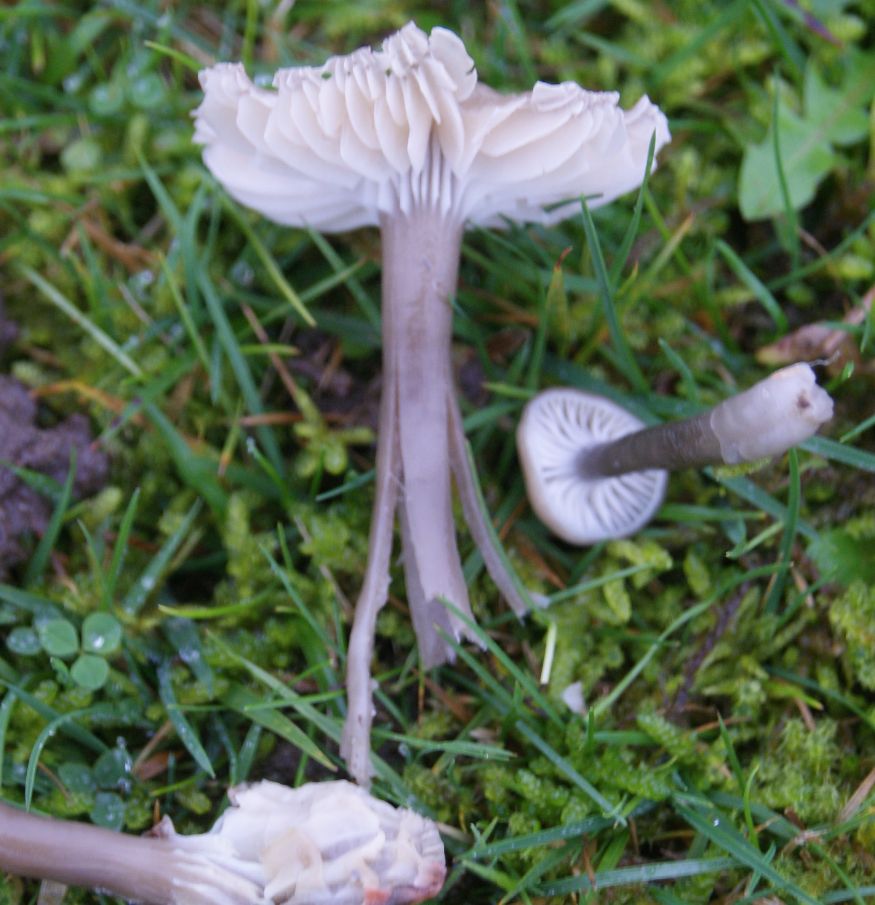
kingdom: Fungi
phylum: Basidiomycota
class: Agaricomycetes
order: Agaricales
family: Hygrophoraceae
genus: Gliophorus
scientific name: Gliophorus irrigatus
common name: slimet vokshat
